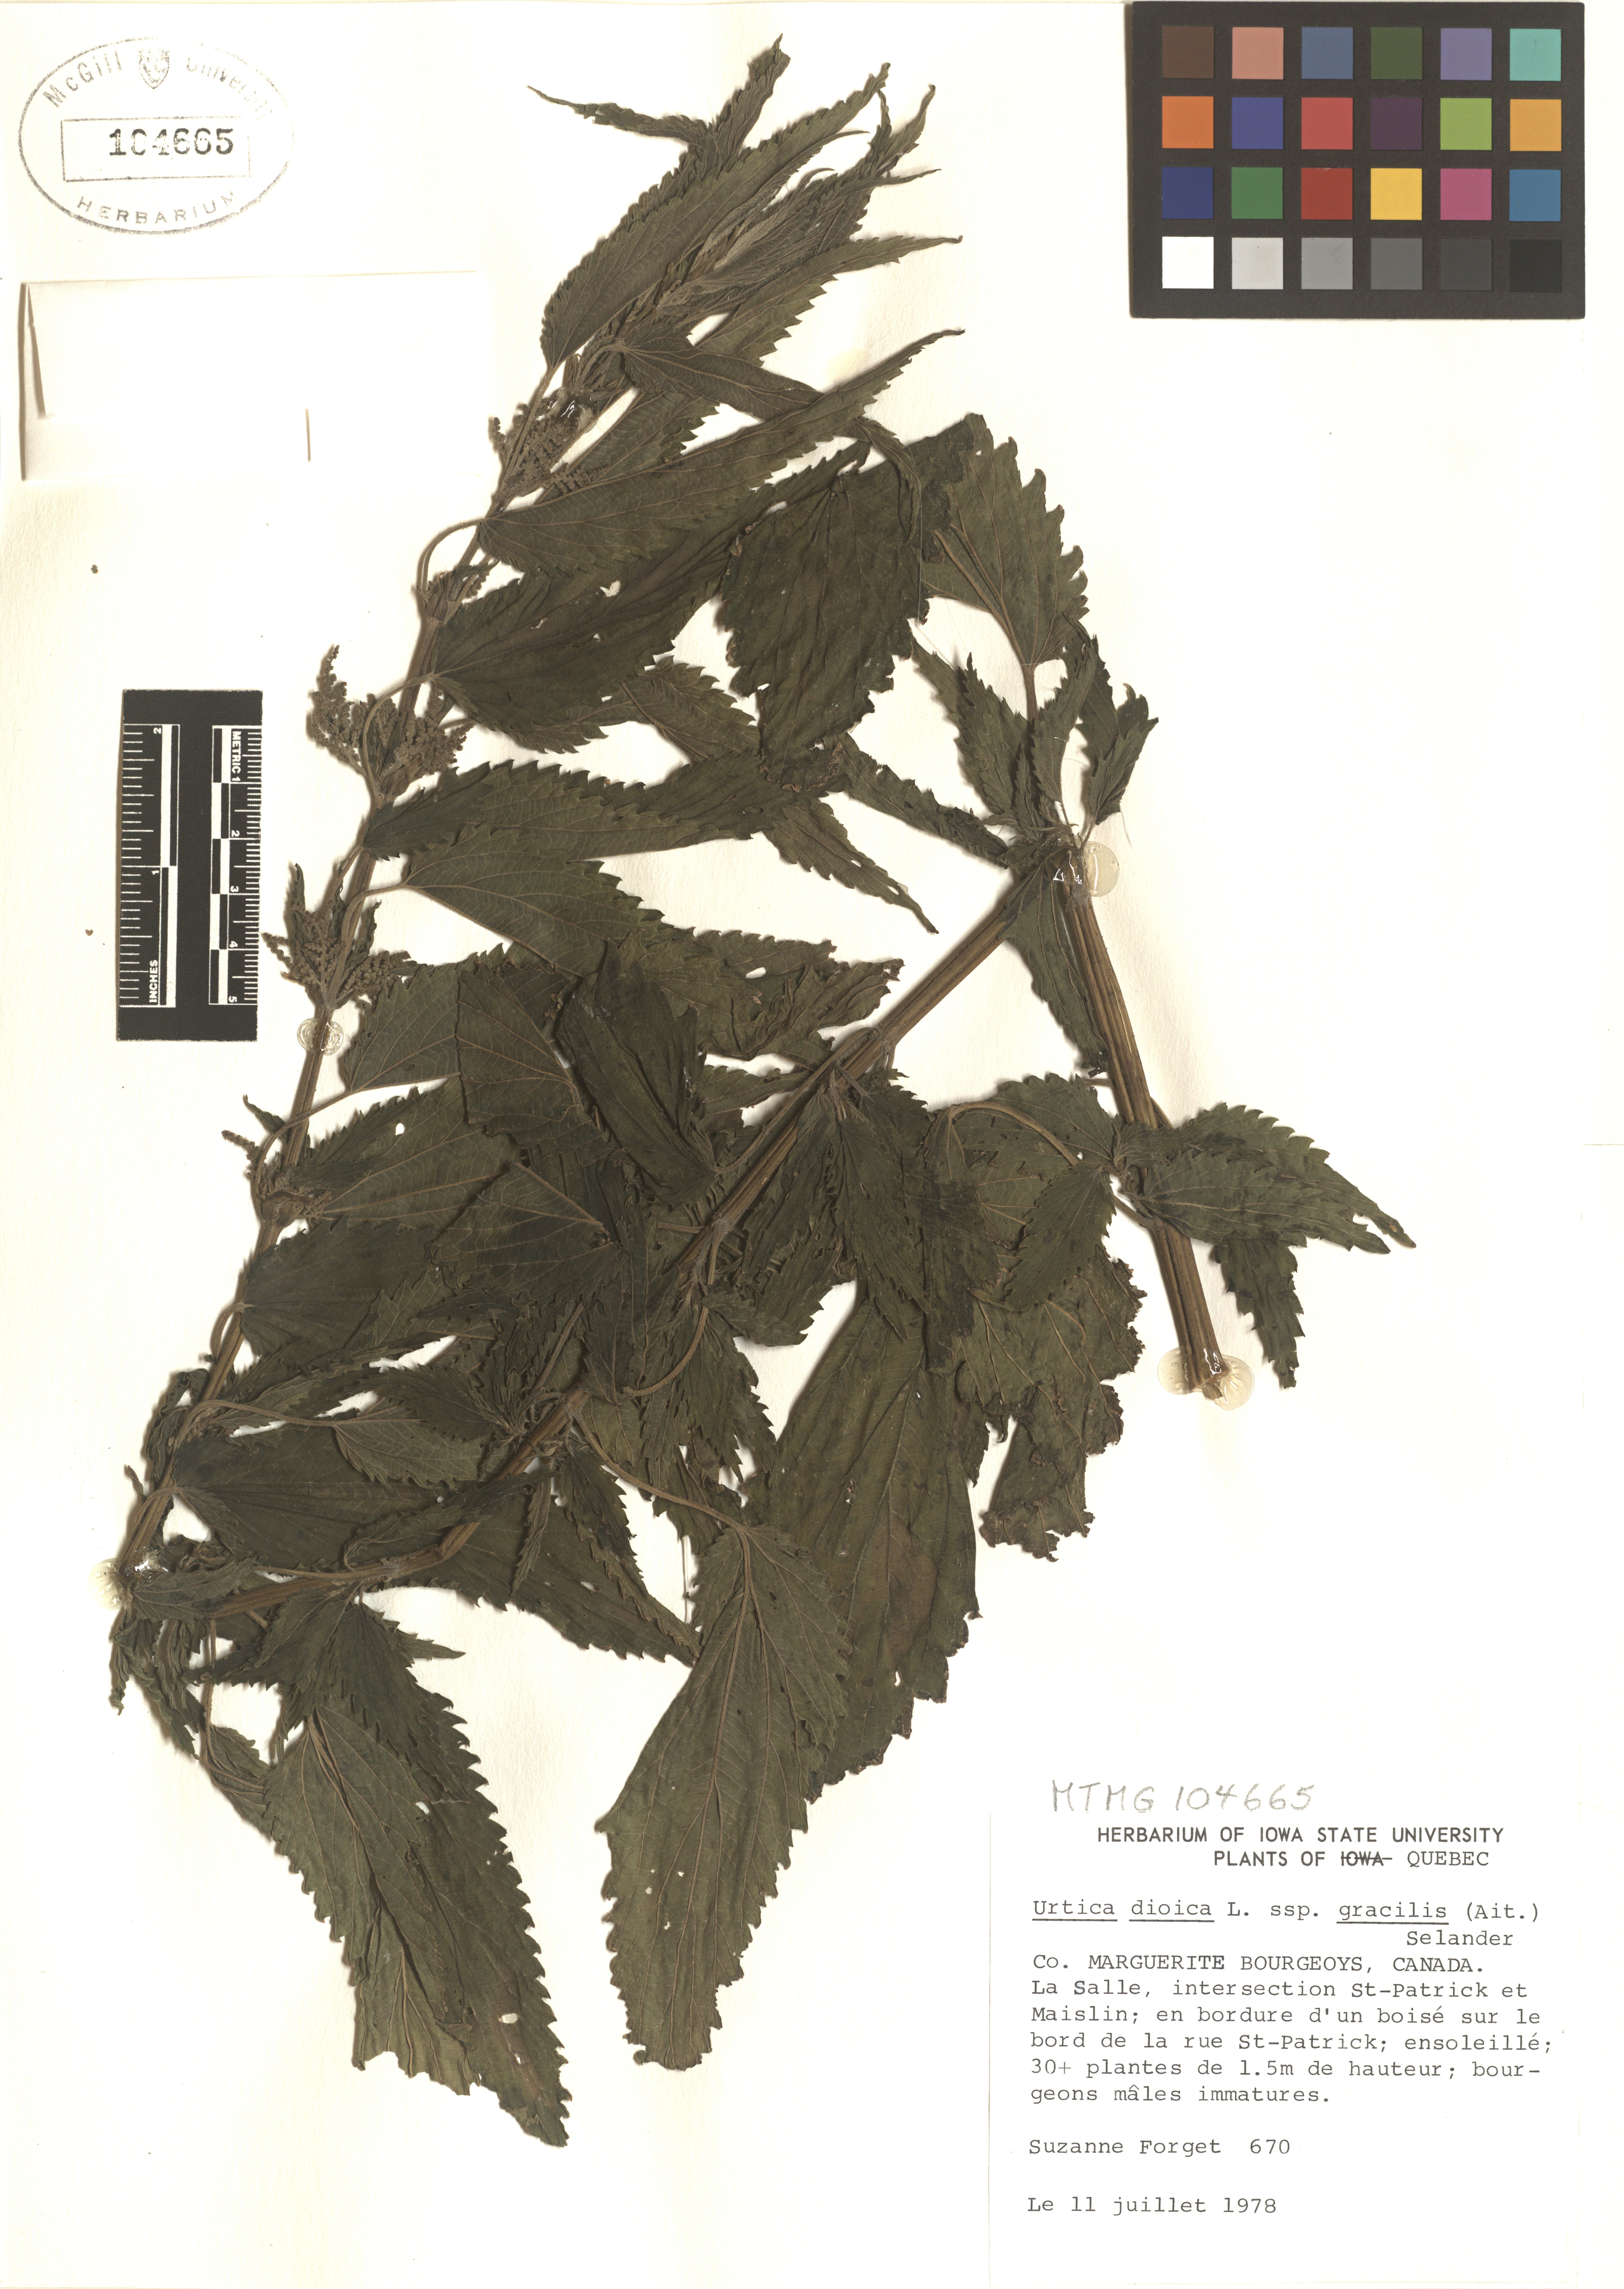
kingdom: Plantae
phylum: Tracheophyta
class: Magnoliopsida
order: Rosales
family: Urticaceae
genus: Urtica
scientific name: Urtica gracilis
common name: Slender stinging nettle
